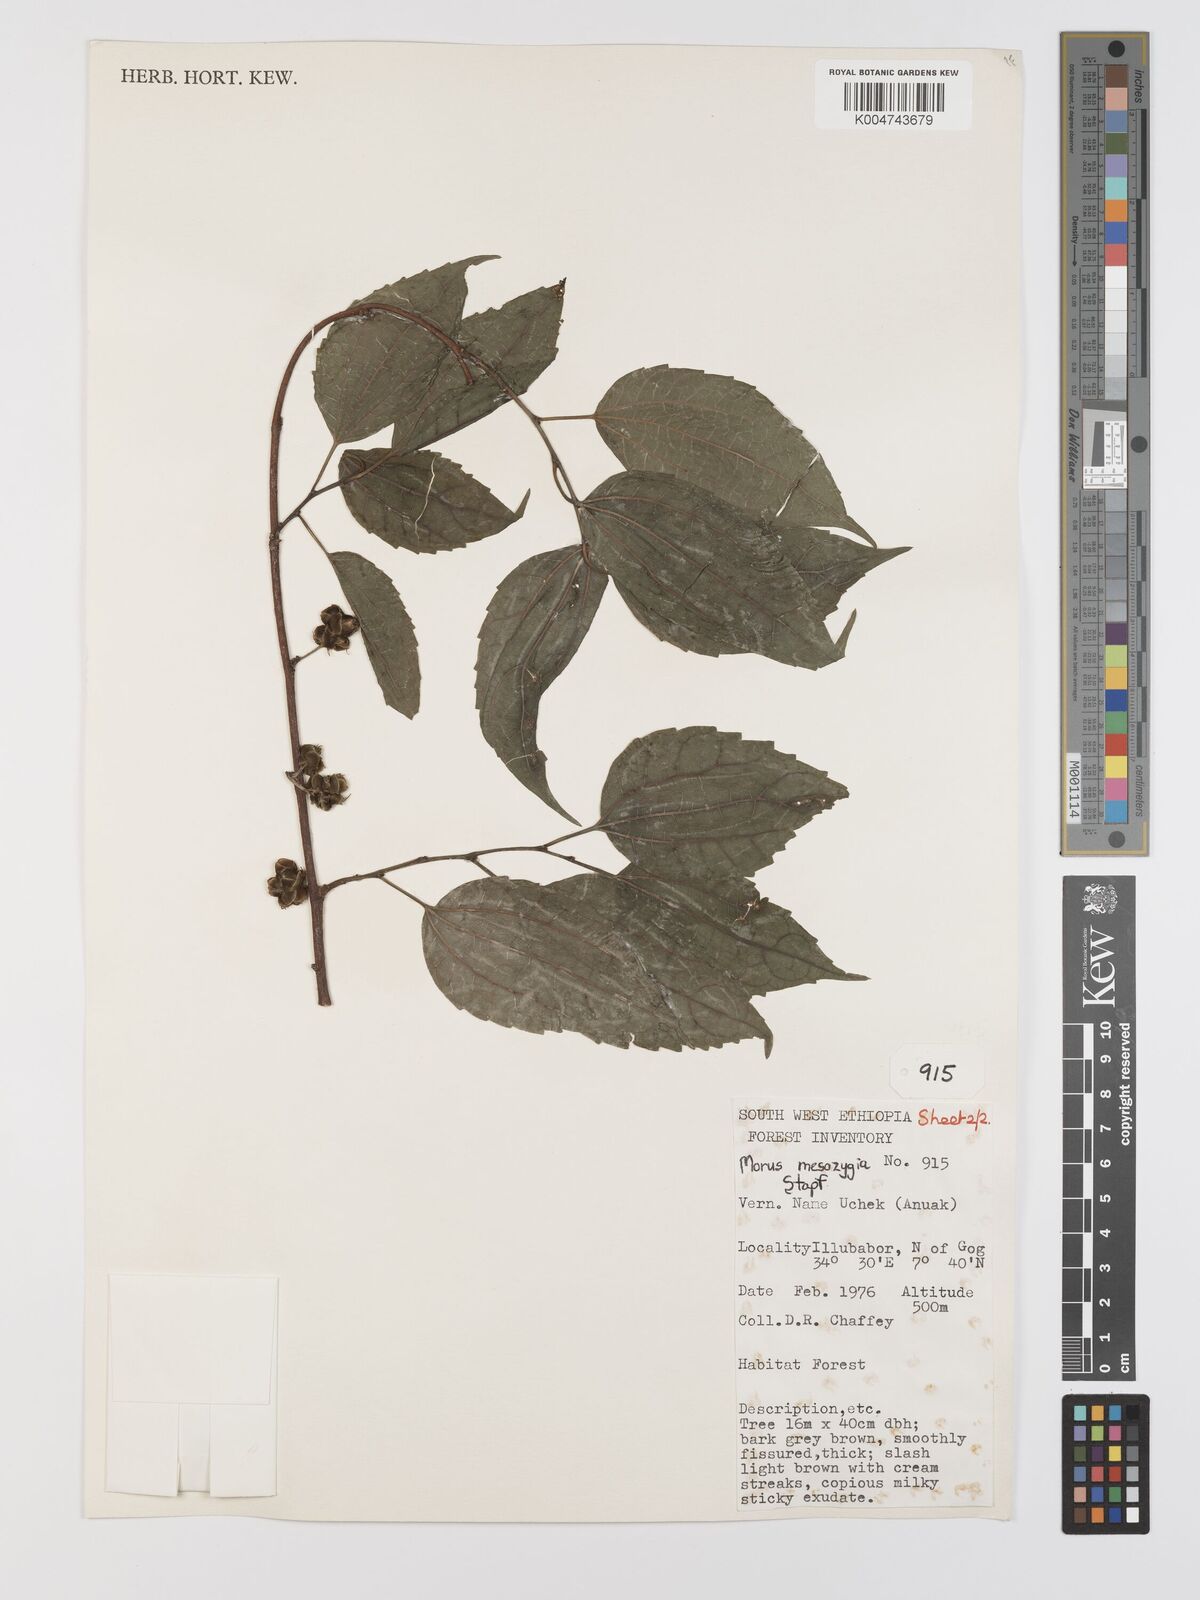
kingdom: Plantae
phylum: Tracheophyta
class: Magnoliopsida
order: Rosales
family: Moraceae
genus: Afromorus
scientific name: Afromorus mesozygia
